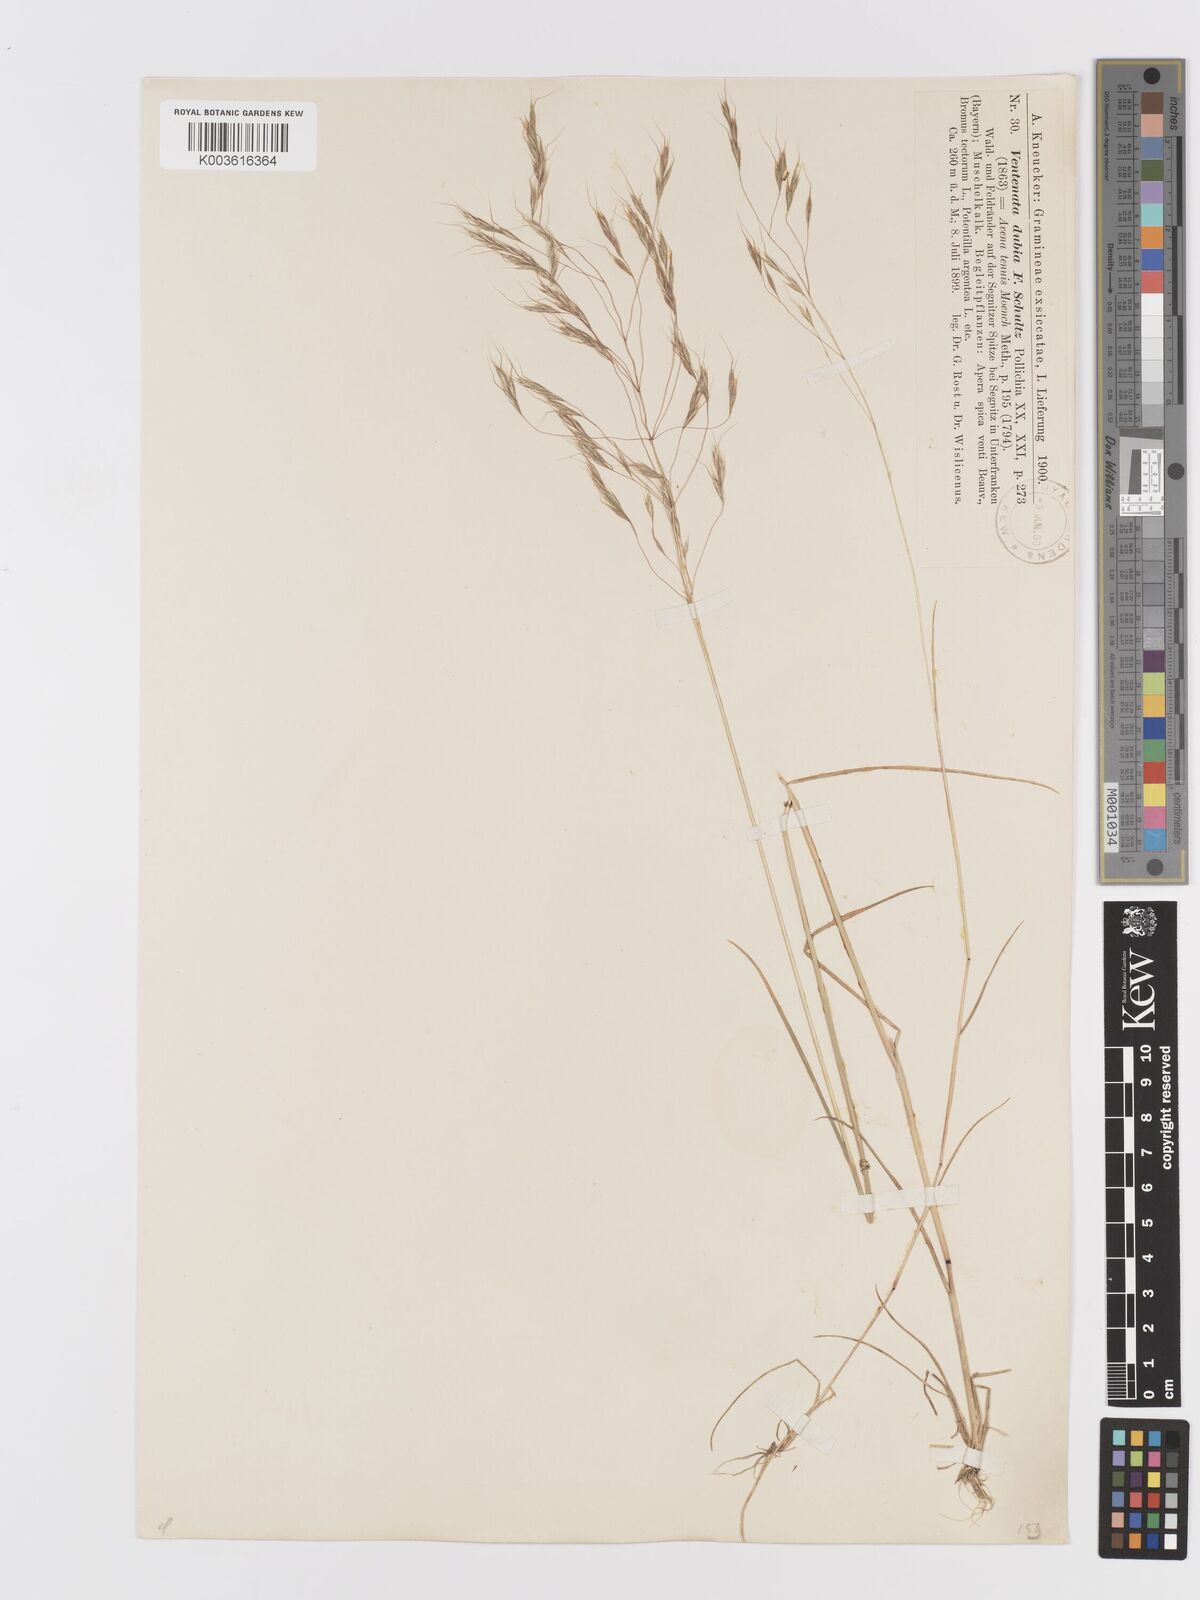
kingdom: Plantae
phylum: Tracheophyta
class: Liliopsida
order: Poales
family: Poaceae
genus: Ventenata
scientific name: Ventenata dubia
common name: North africa grass
